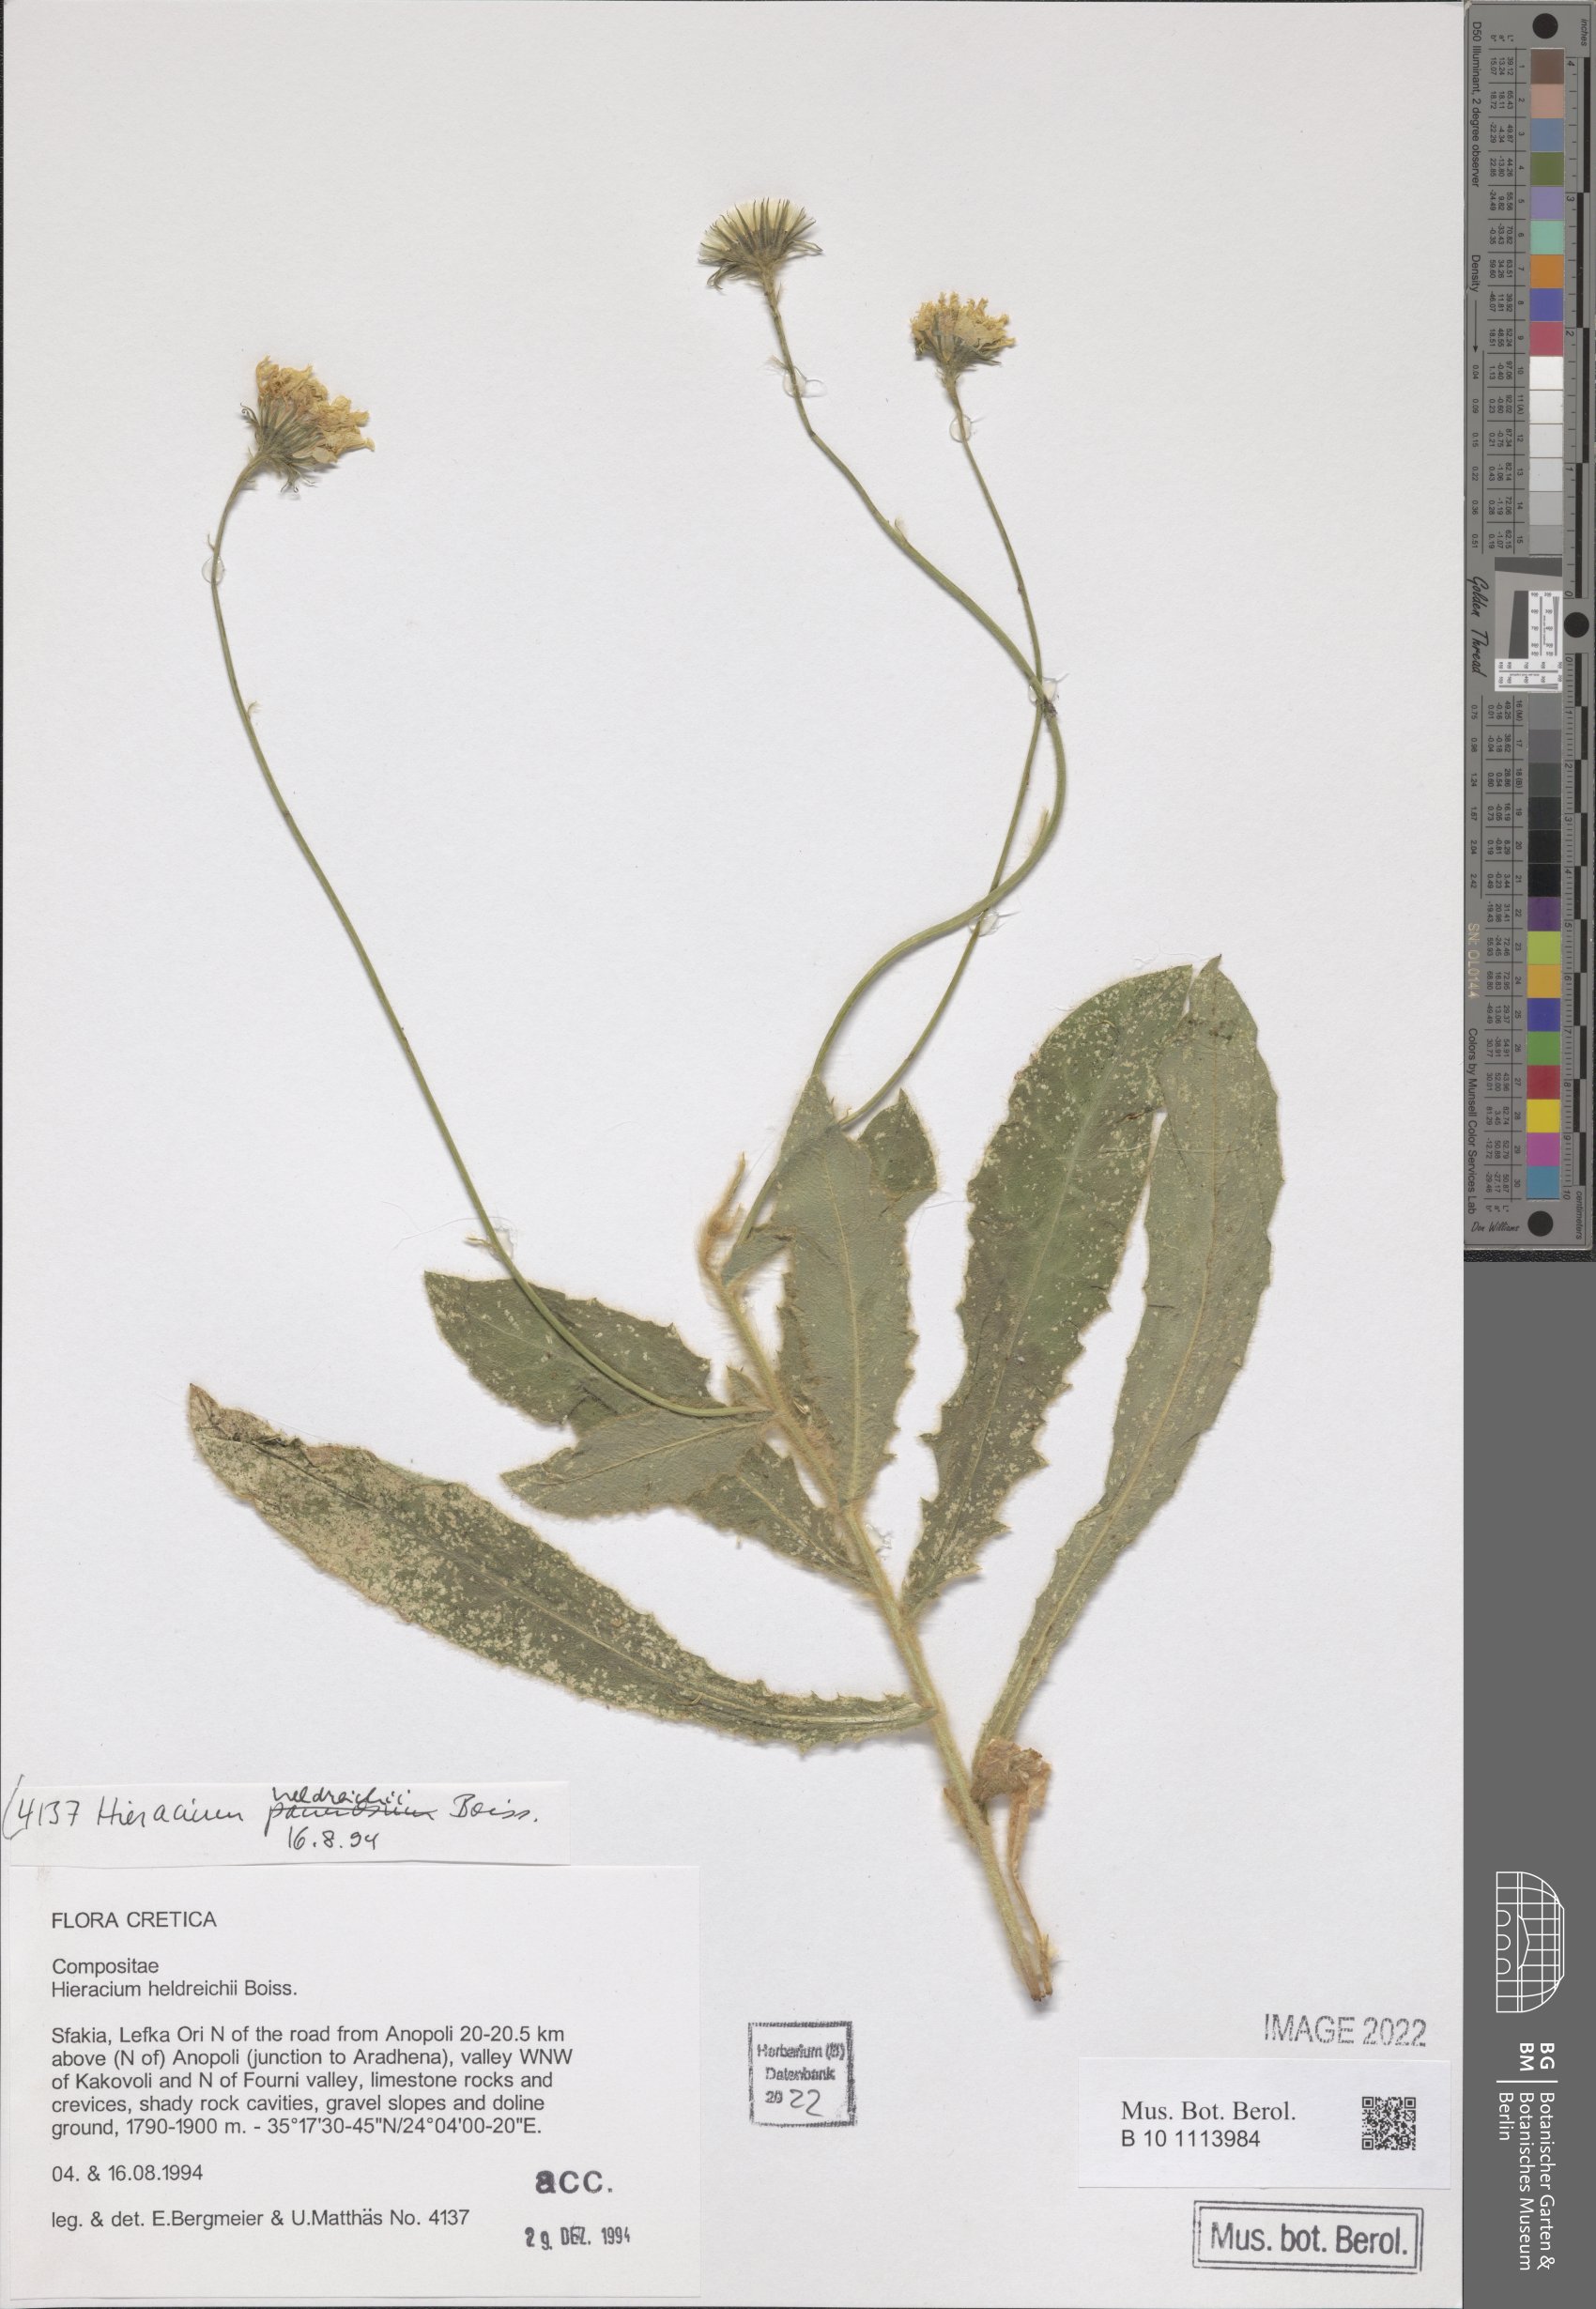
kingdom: Plantae
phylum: Tracheophyta
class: Magnoliopsida
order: Asterales
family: Asteraceae
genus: Hieracium
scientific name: Hieracium heldreichii
